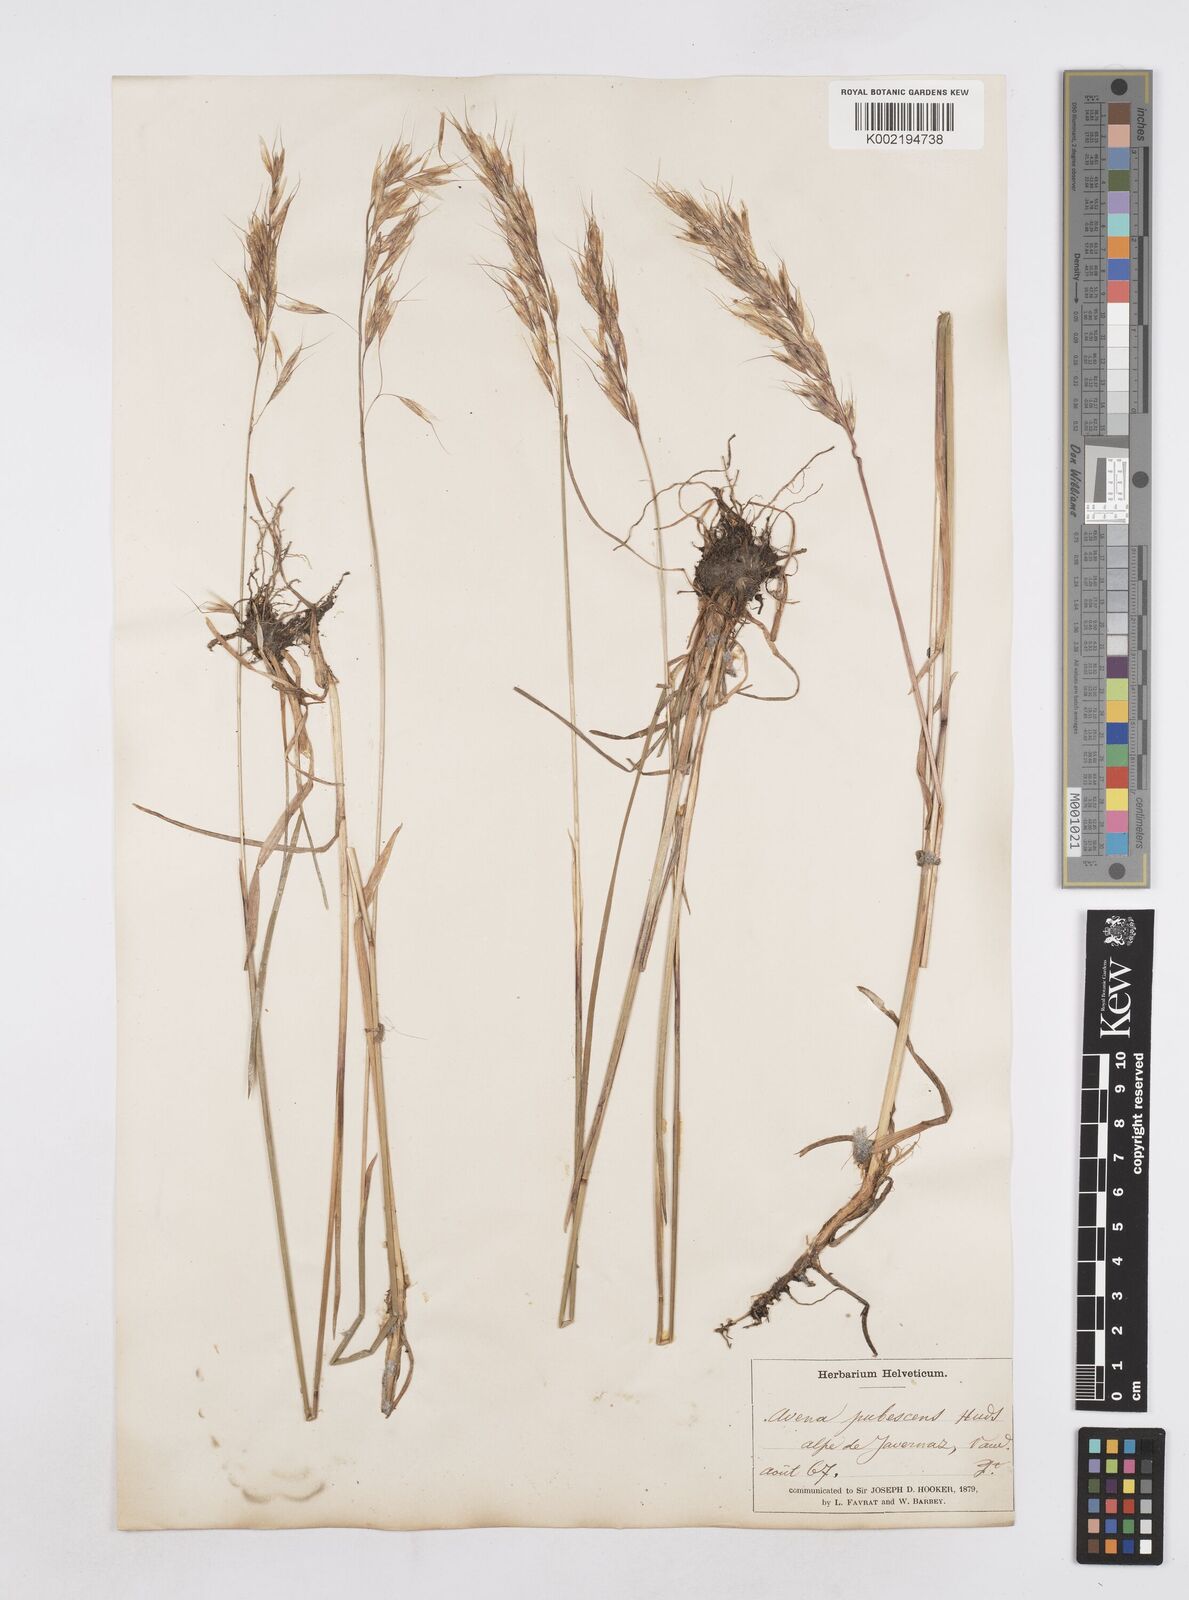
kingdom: Plantae
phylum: Tracheophyta
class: Liliopsida
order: Poales
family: Poaceae
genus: Avenula
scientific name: Avenula pubescens
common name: Downy alpine oatgrass
